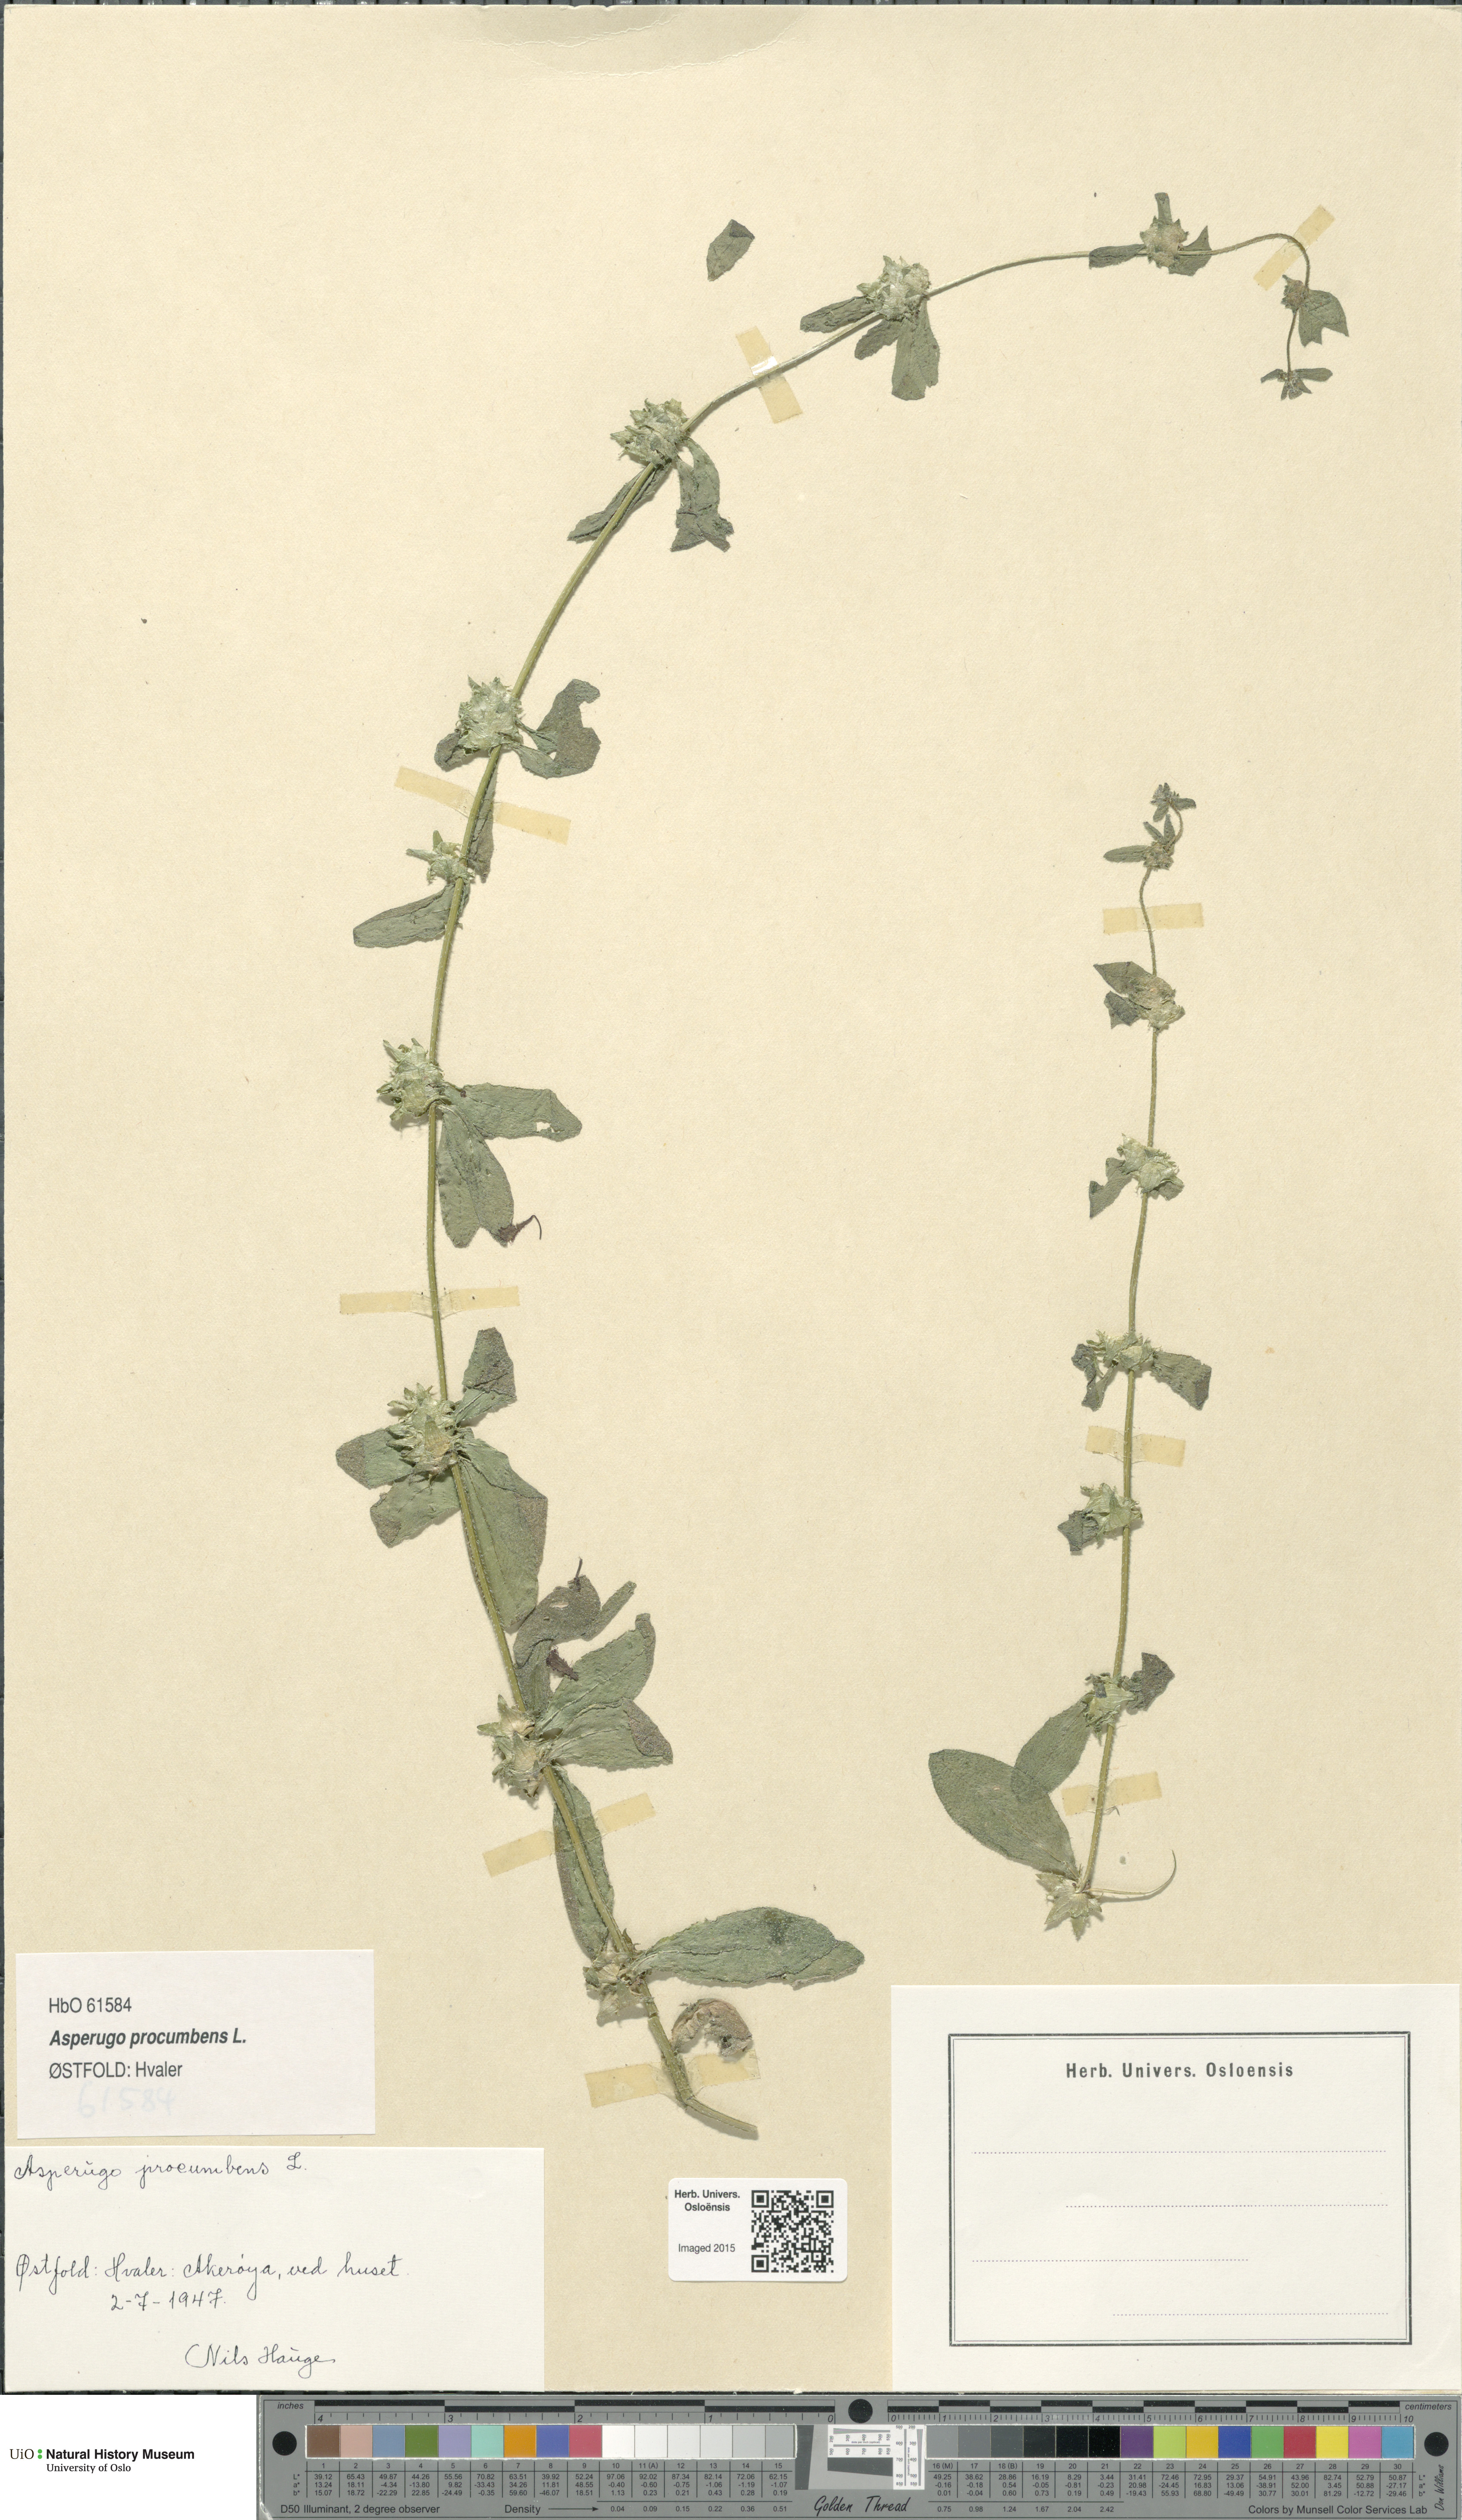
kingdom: Plantae
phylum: Tracheophyta
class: Magnoliopsida
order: Boraginales
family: Boraginaceae
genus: Asperugo
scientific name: Asperugo procumbens
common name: Madwort
